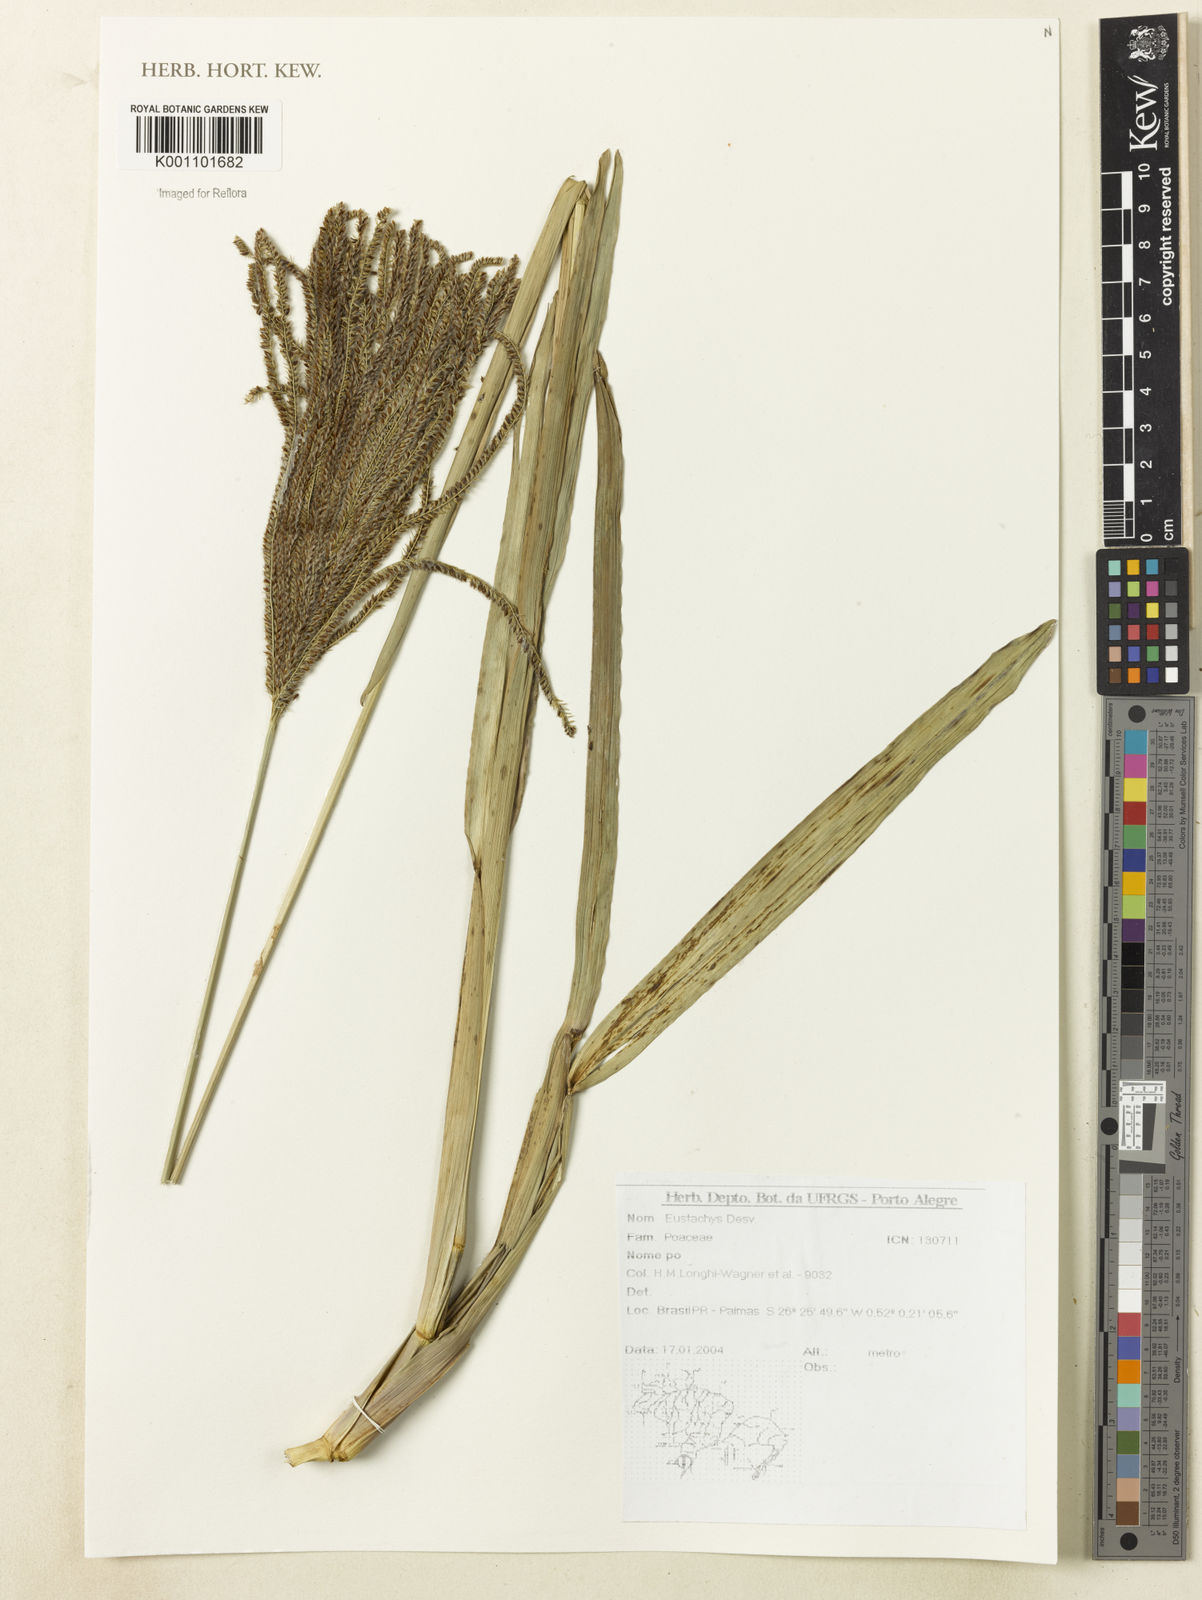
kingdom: Plantae
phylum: Tracheophyta
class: Liliopsida
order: Poales
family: Poaceae
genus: Eustachys
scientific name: Eustachys
